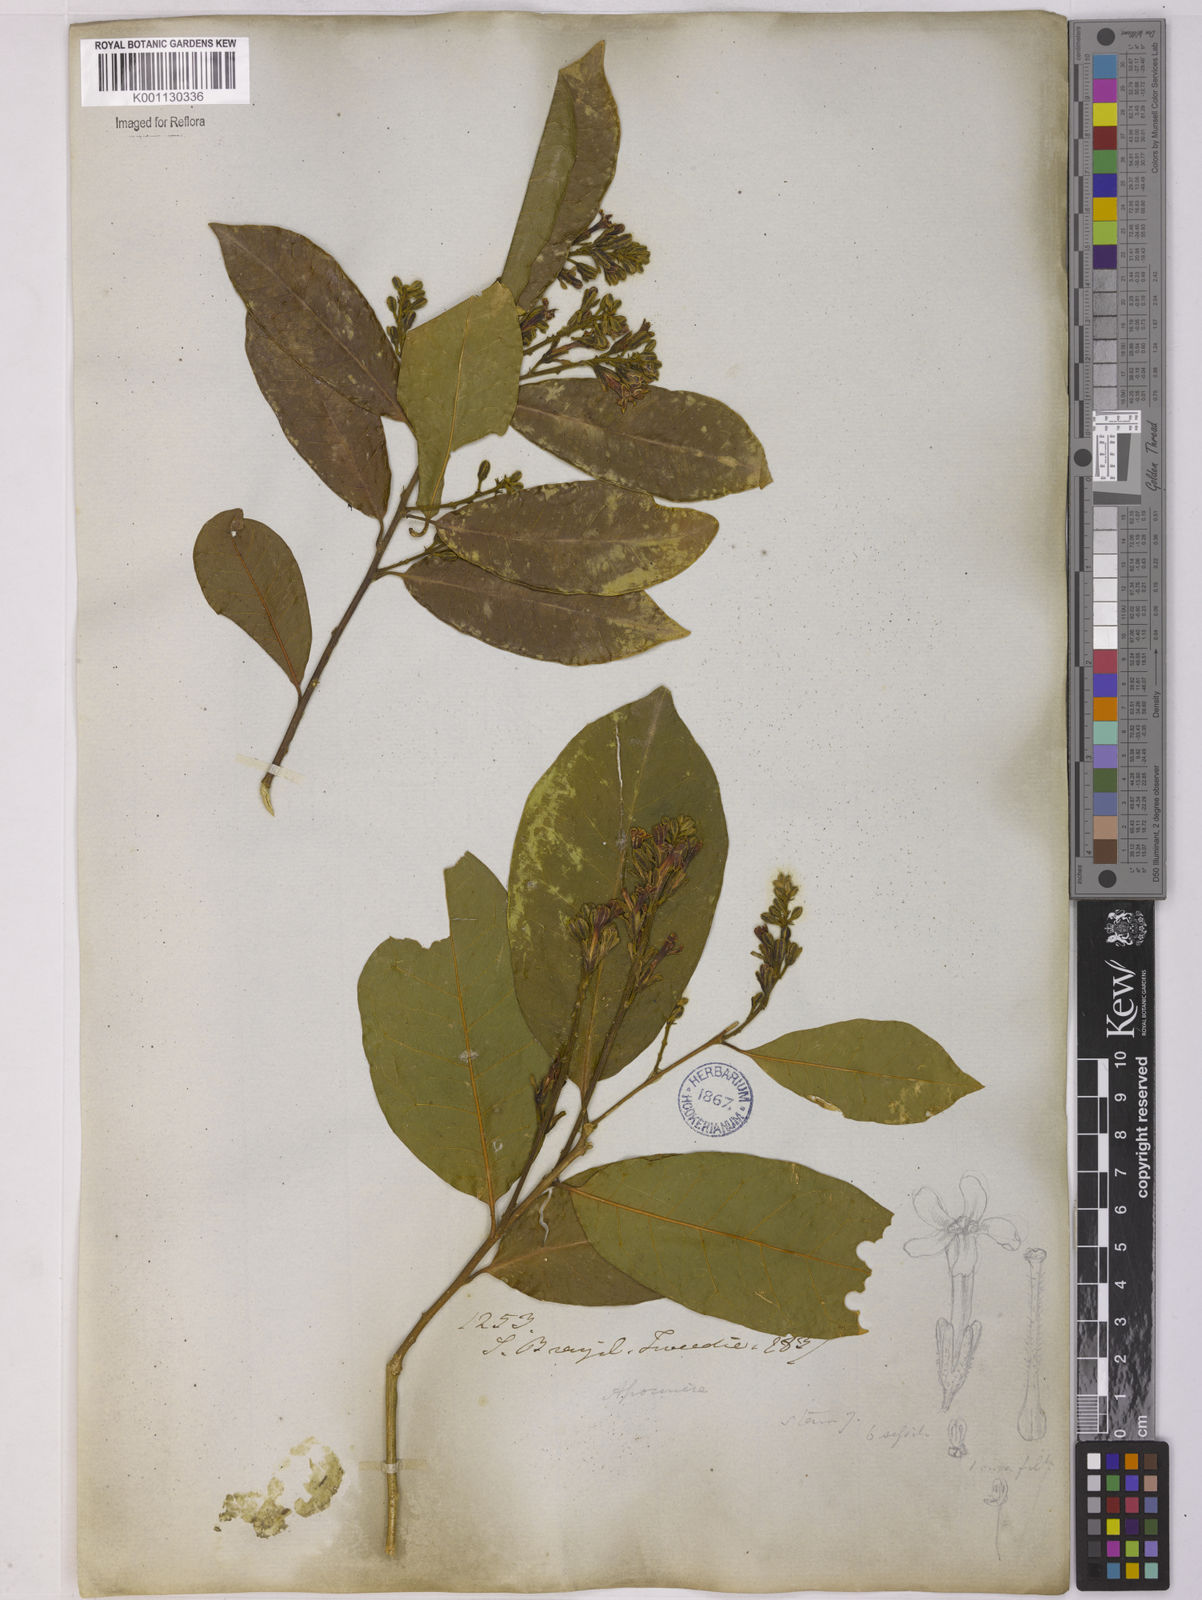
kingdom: Plantae
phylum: Tracheophyta
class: Magnoliopsida
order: Fabales
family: Polygalaceae
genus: Diclidanthera
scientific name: Diclidanthera
